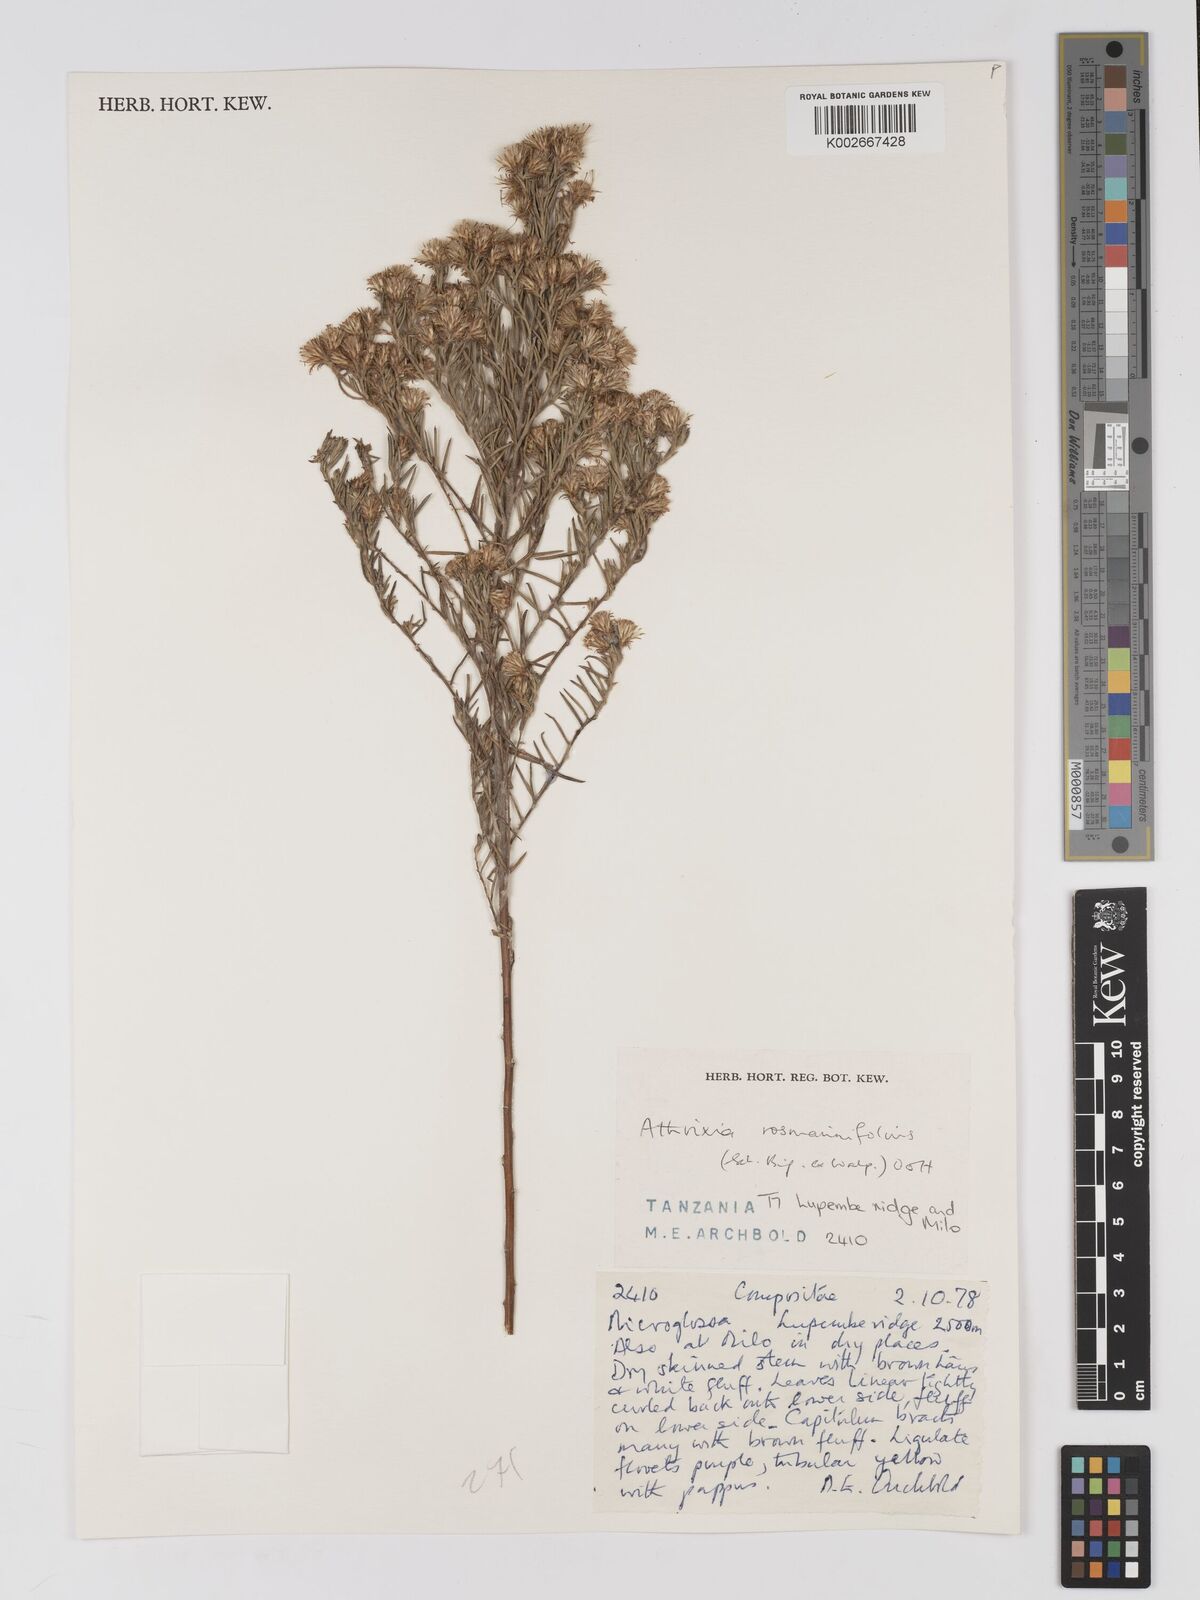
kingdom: Plantae
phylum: Tracheophyta
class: Magnoliopsida
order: Asterales
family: Asteraceae
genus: Athrixia
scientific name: Athrixia rosmarinifolia
